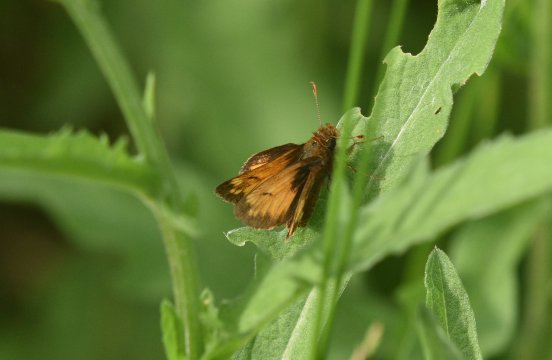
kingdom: Animalia
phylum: Arthropoda
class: Insecta
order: Lepidoptera
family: Hesperiidae
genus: Lon
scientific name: Lon hobomok
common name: Hobomok Skipper
